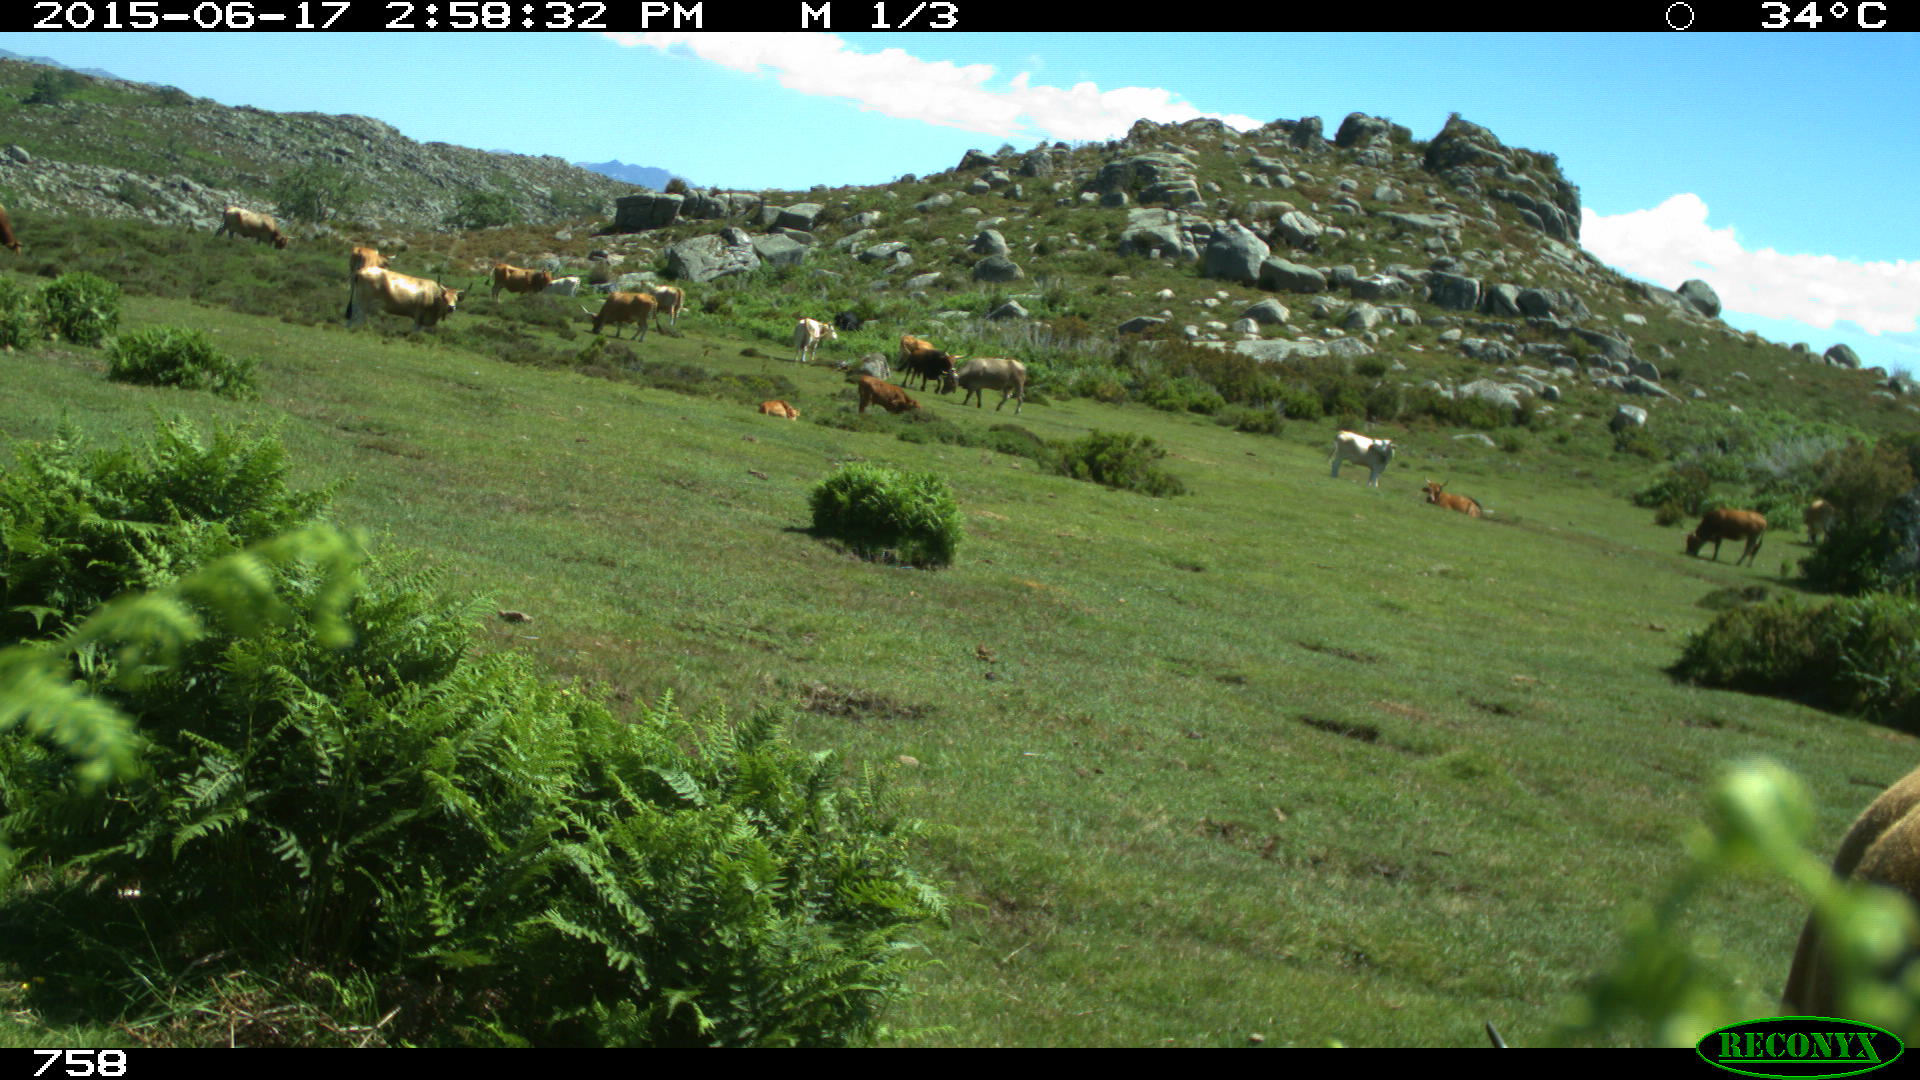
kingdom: Animalia
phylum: Chordata
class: Mammalia
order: Artiodactyla
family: Bovidae
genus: Bos
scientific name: Bos taurus
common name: Domesticated cattle
